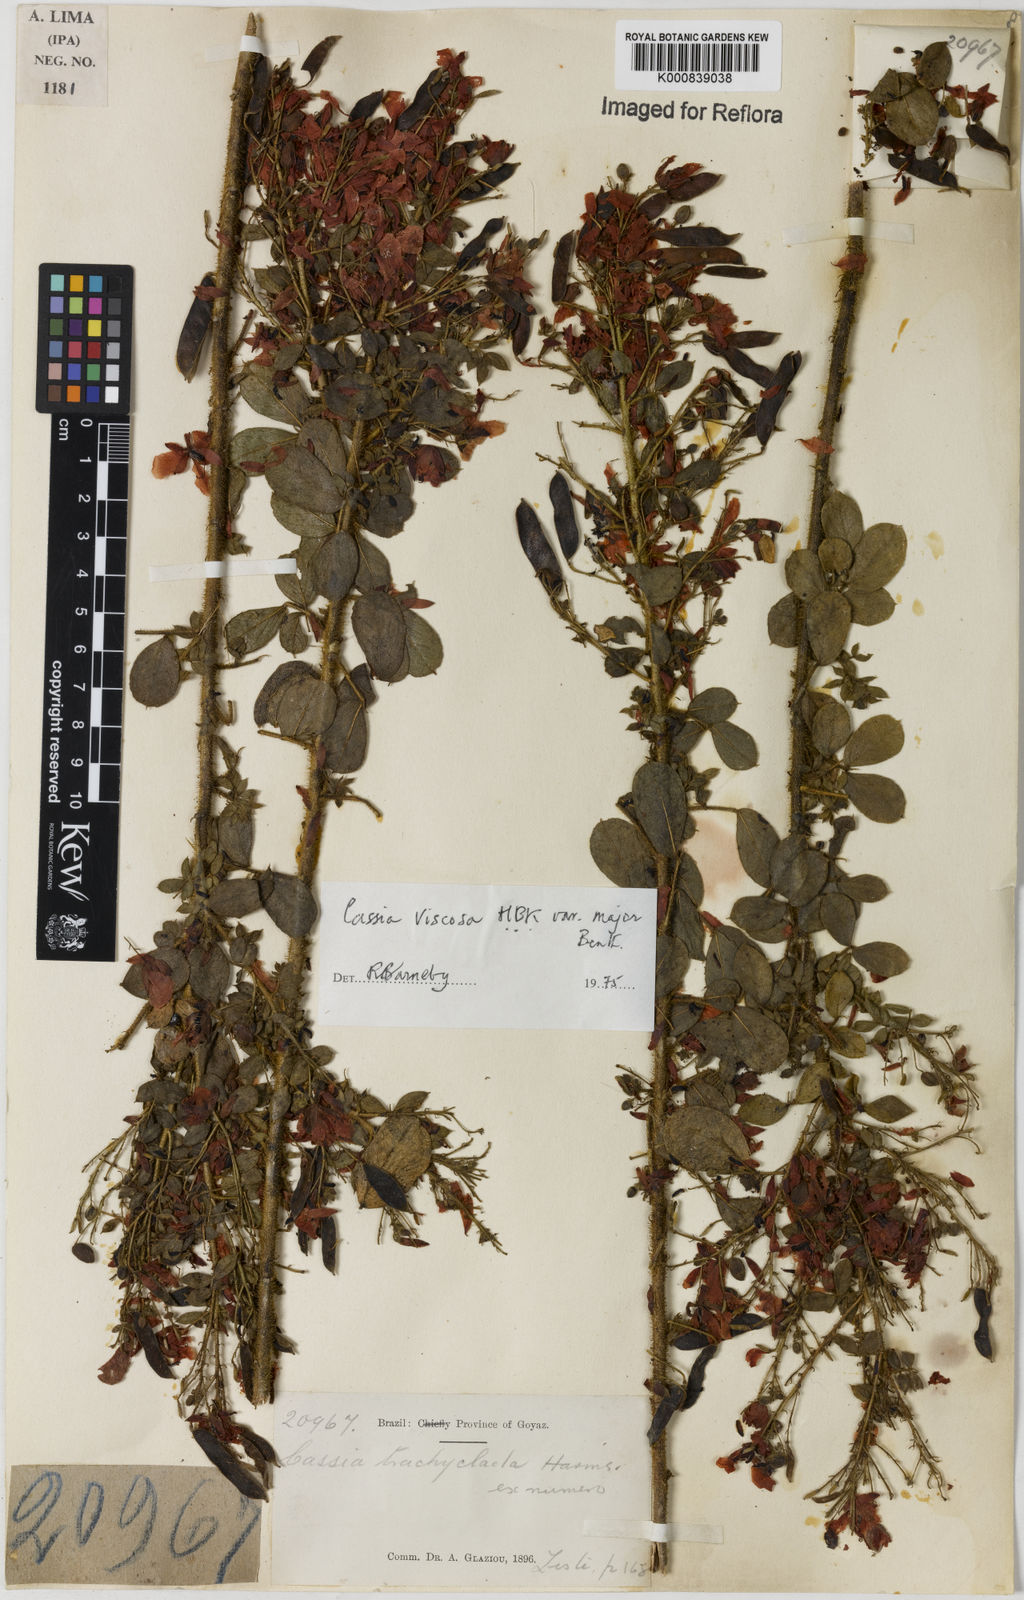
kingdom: Plantae
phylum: Tracheophyta
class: Magnoliopsida
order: Fabales
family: Fabaceae
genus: Chamaecrista
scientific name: Chamaecrista viscosa
